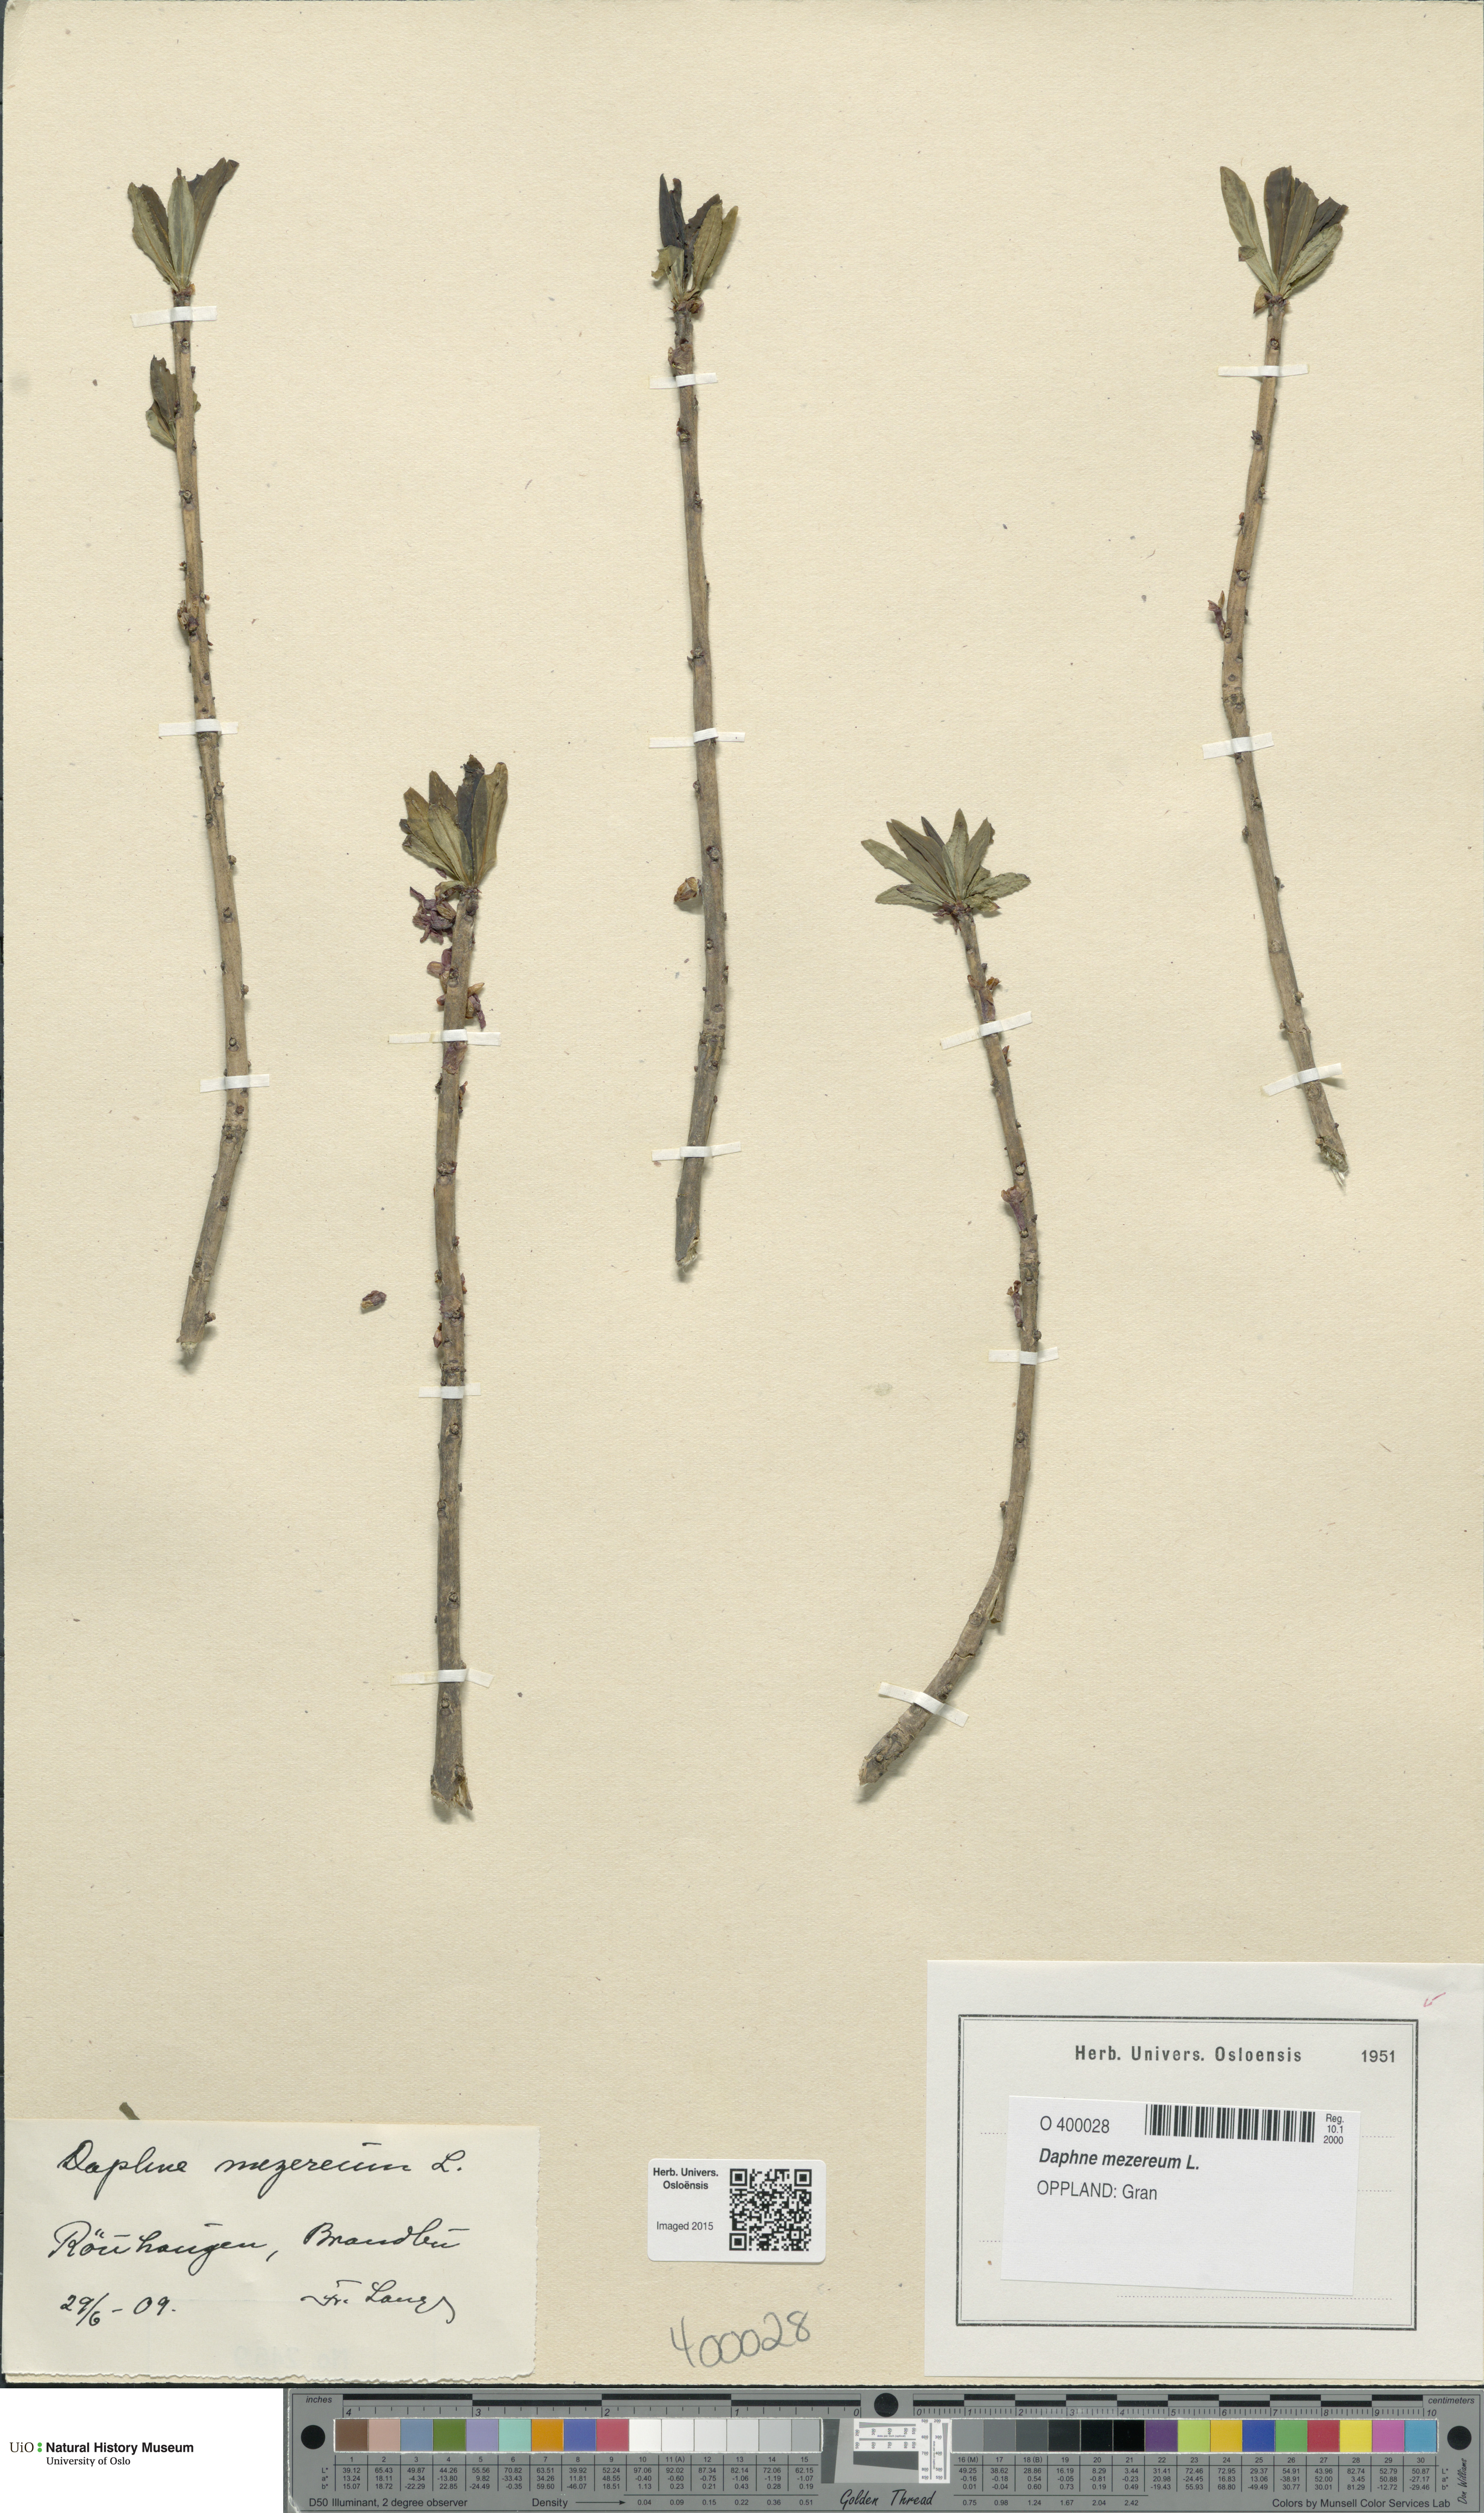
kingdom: Plantae
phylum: Tracheophyta
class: Magnoliopsida
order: Malvales
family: Thymelaeaceae
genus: Daphne
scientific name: Daphne mezereum
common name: Mezereon
